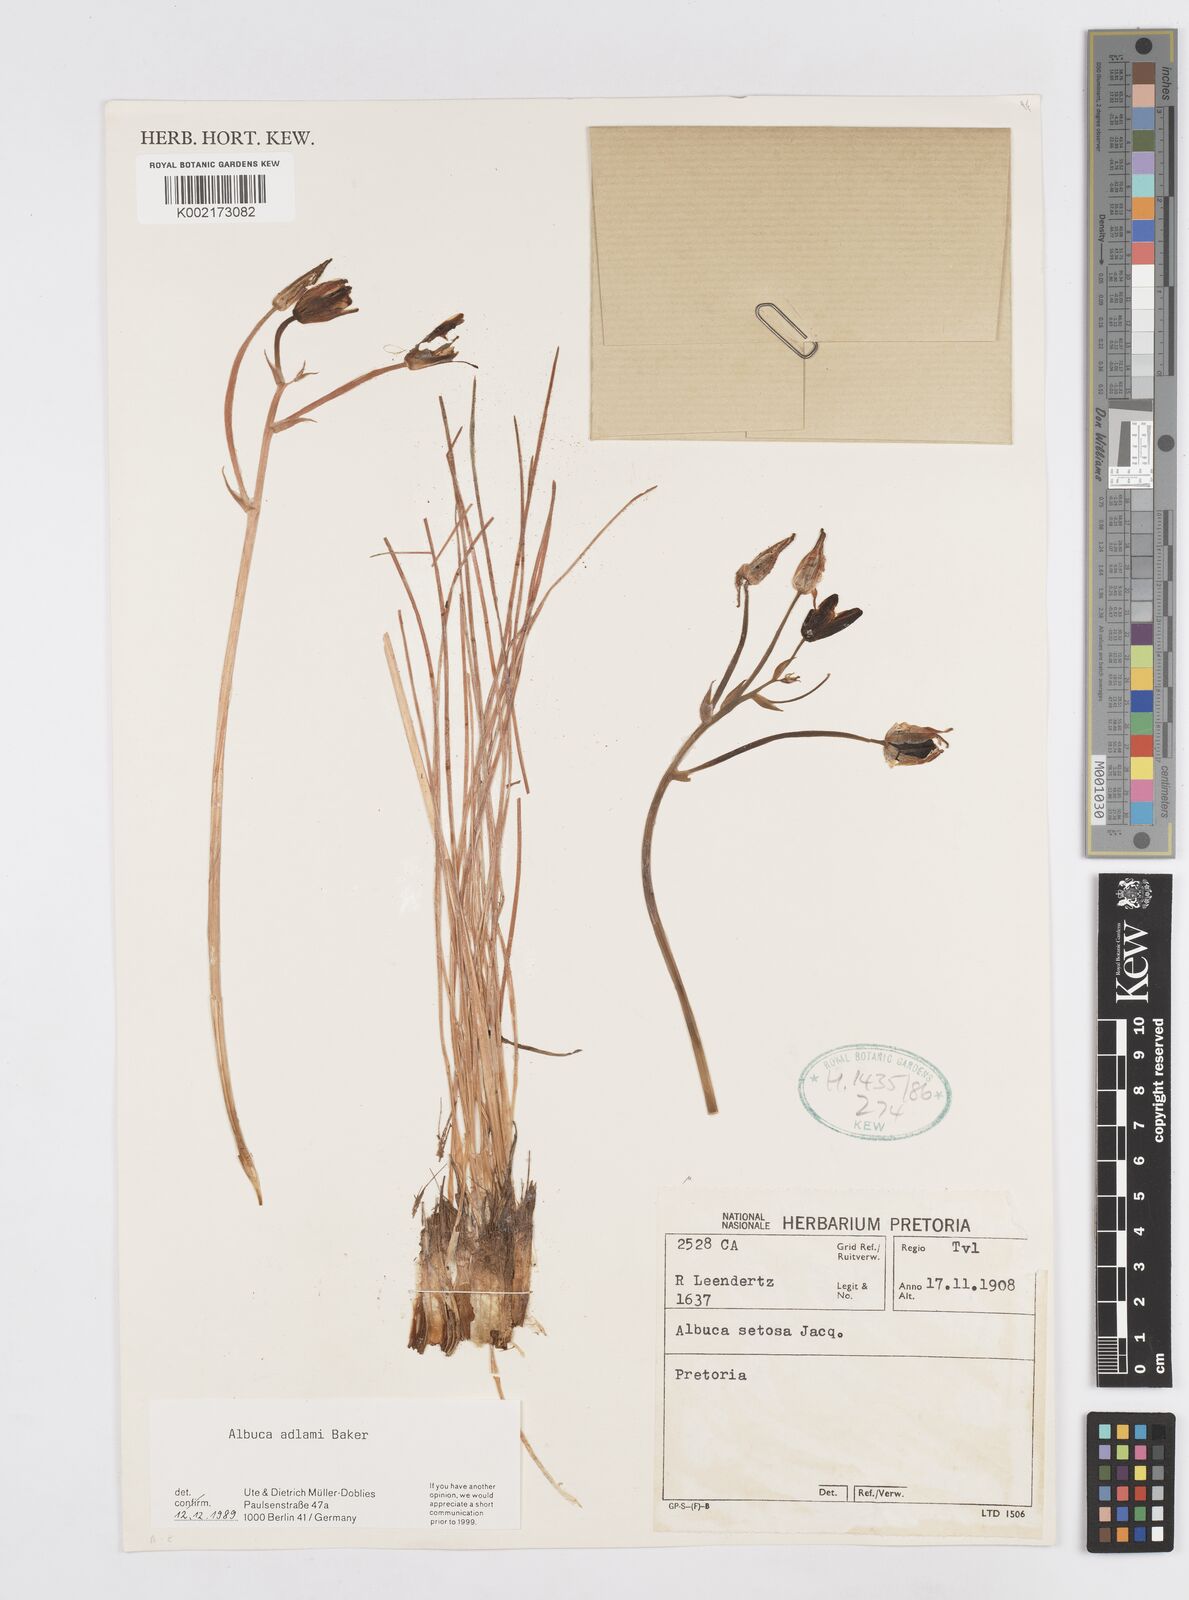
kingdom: Plantae
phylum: Tracheophyta
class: Liliopsida
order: Asparagales
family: Asparagaceae
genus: Albuca
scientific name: Albuca adlami
